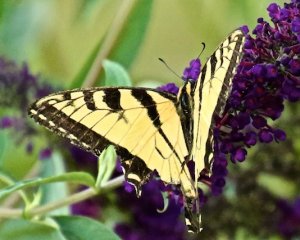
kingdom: Animalia
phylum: Arthropoda
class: Insecta
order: Lepidoptera
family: Papilionidae
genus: Pterourus
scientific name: Pterourus canadensis
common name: Canadian Tiger Swallowtail
